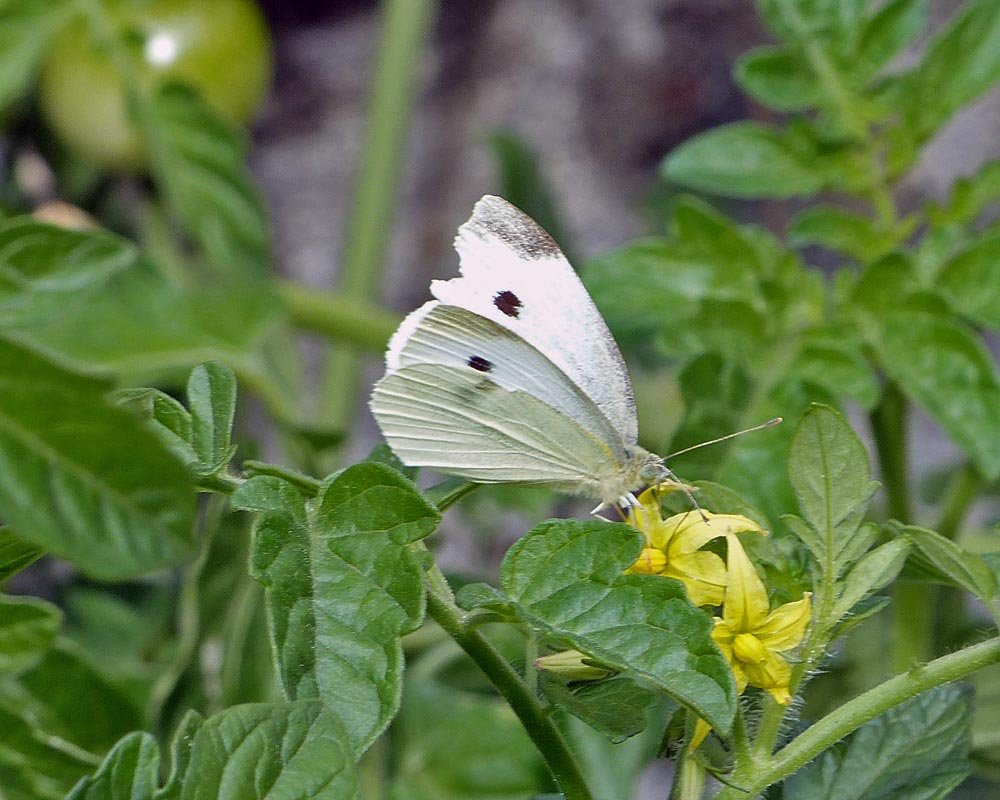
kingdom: Animalia
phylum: Arthropoda
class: Insecta
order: Lepidoptera
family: Pieridae
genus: Pieris
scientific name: Pieris rapae
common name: Cabbage White
